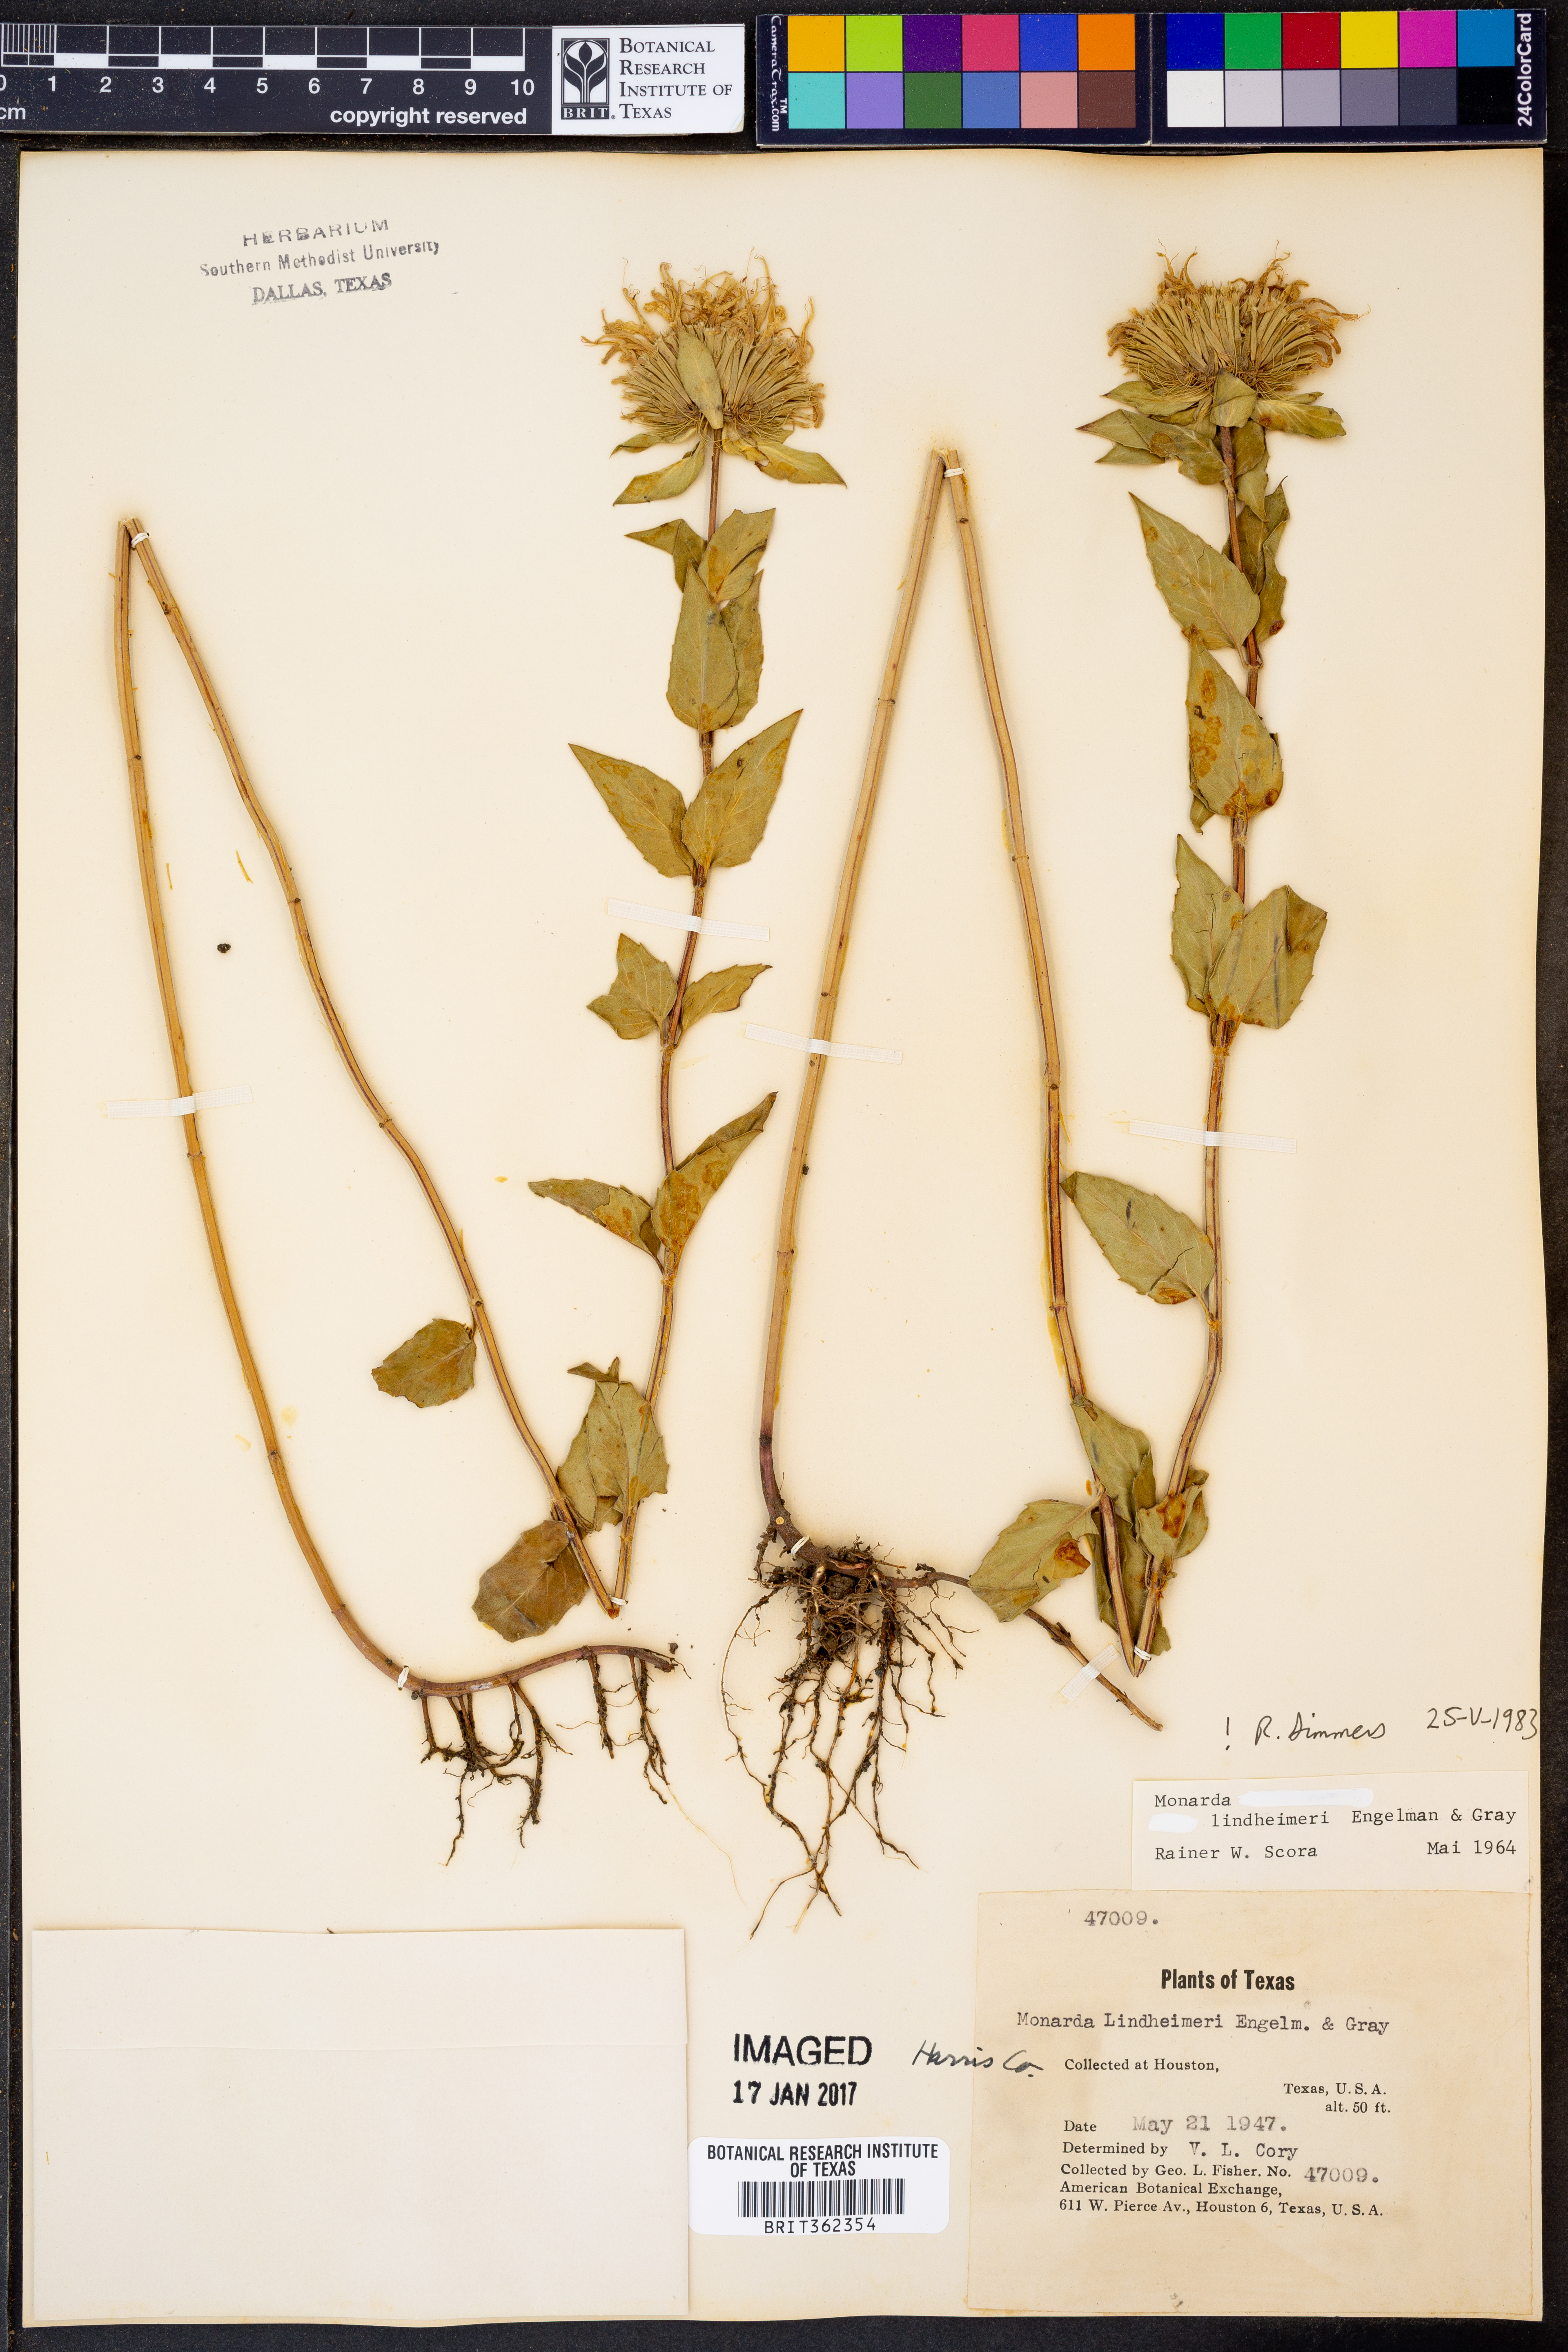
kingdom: Plantae
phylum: Tracheophyta
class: Magnoliopsida
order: Lamiales
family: Lamiaceae
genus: Monarda
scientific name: Monarda lindheimeri
